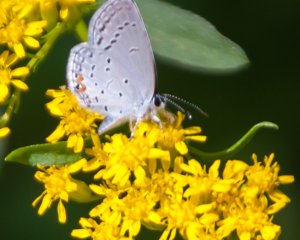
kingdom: Animalia
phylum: Arthropoda
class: Insecta
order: Lepidoptera
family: Lycaenidae
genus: Elkalyce
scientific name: Elkalyce comyntas
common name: Eastern Tailed-Blue
